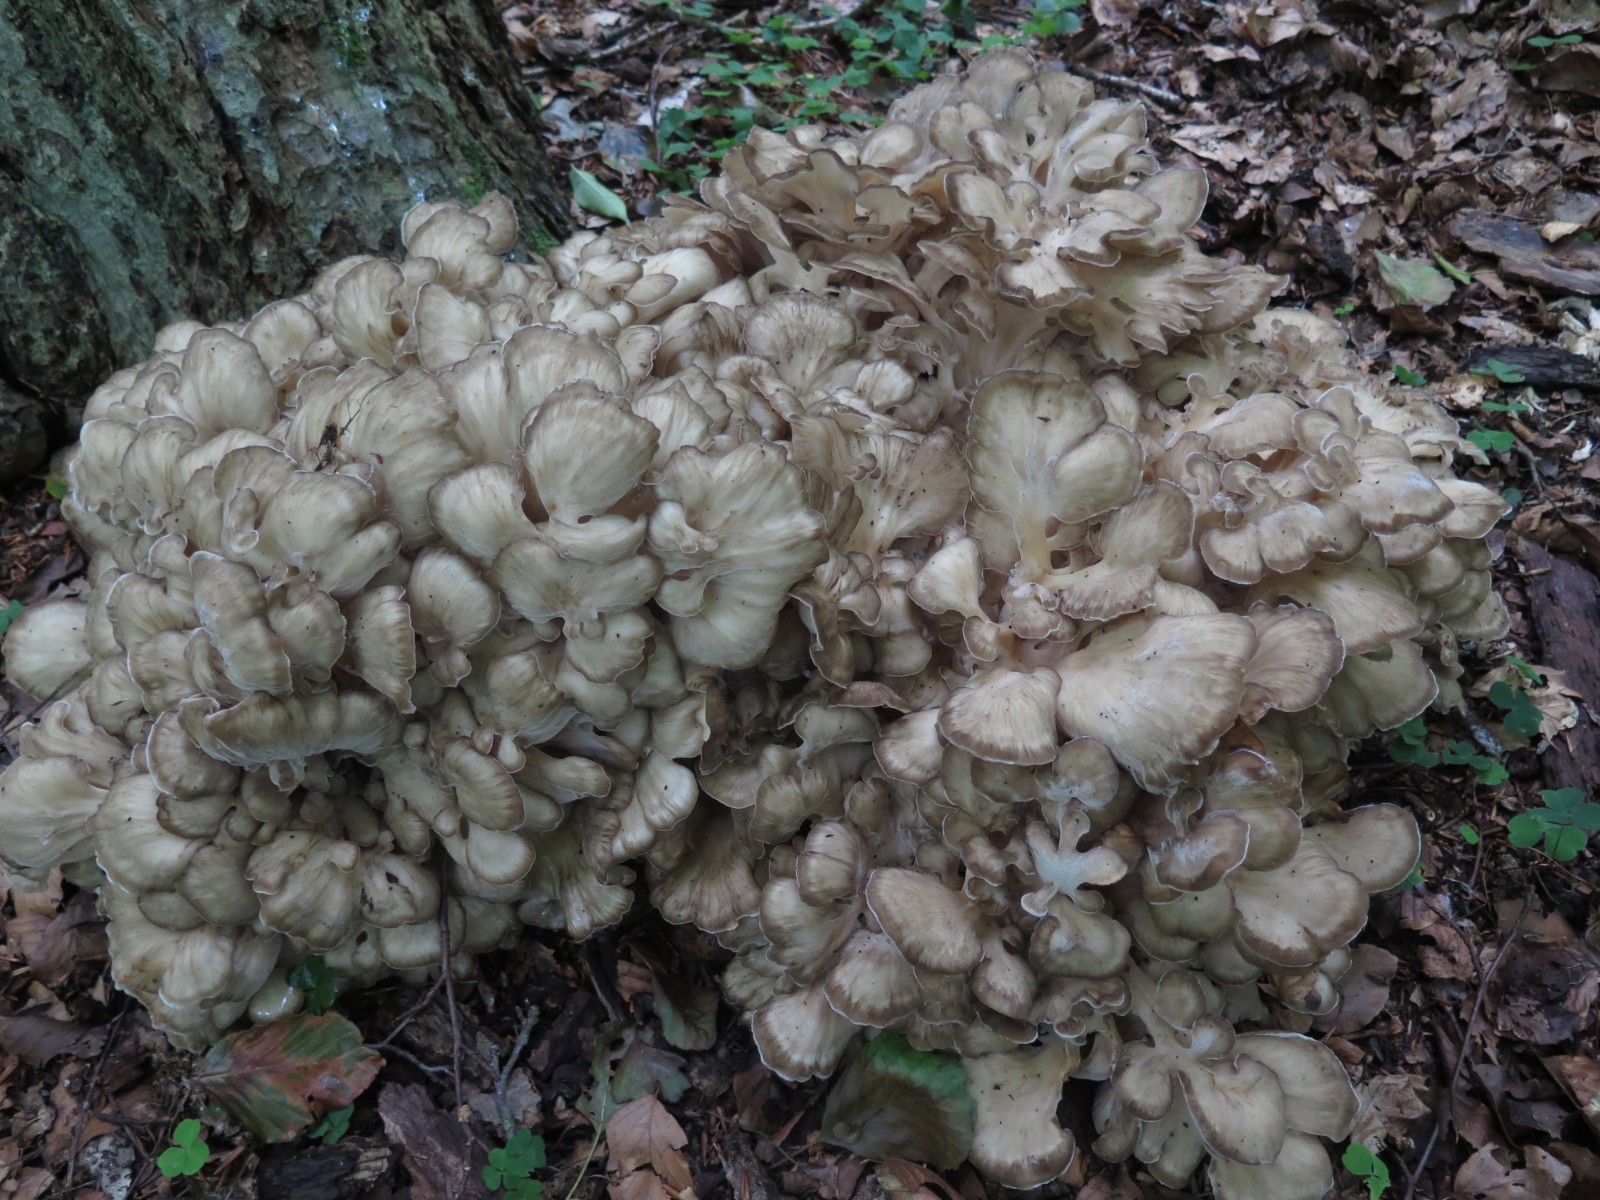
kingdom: Fungi
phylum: Basidiomycota
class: Agaricomycetes
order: Polyporales
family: Grifolaceae
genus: Grifola
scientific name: Grifola frondosa
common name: tueporesvamp
